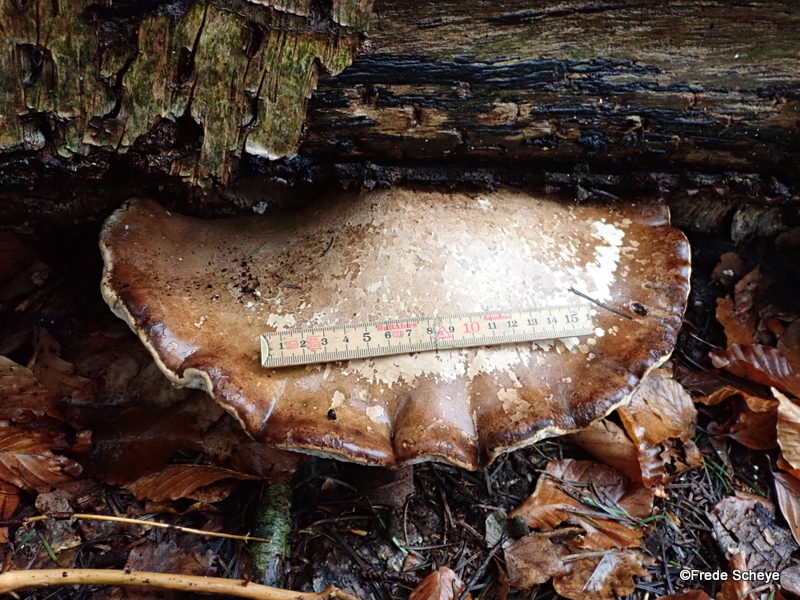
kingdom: Fungi
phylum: Basidiomycota
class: Agaricomycetes
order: Polyporales
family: Fomitopsidaceae
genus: Fomitopsis
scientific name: Fomitopsis betulina
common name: birkeporesvamp
